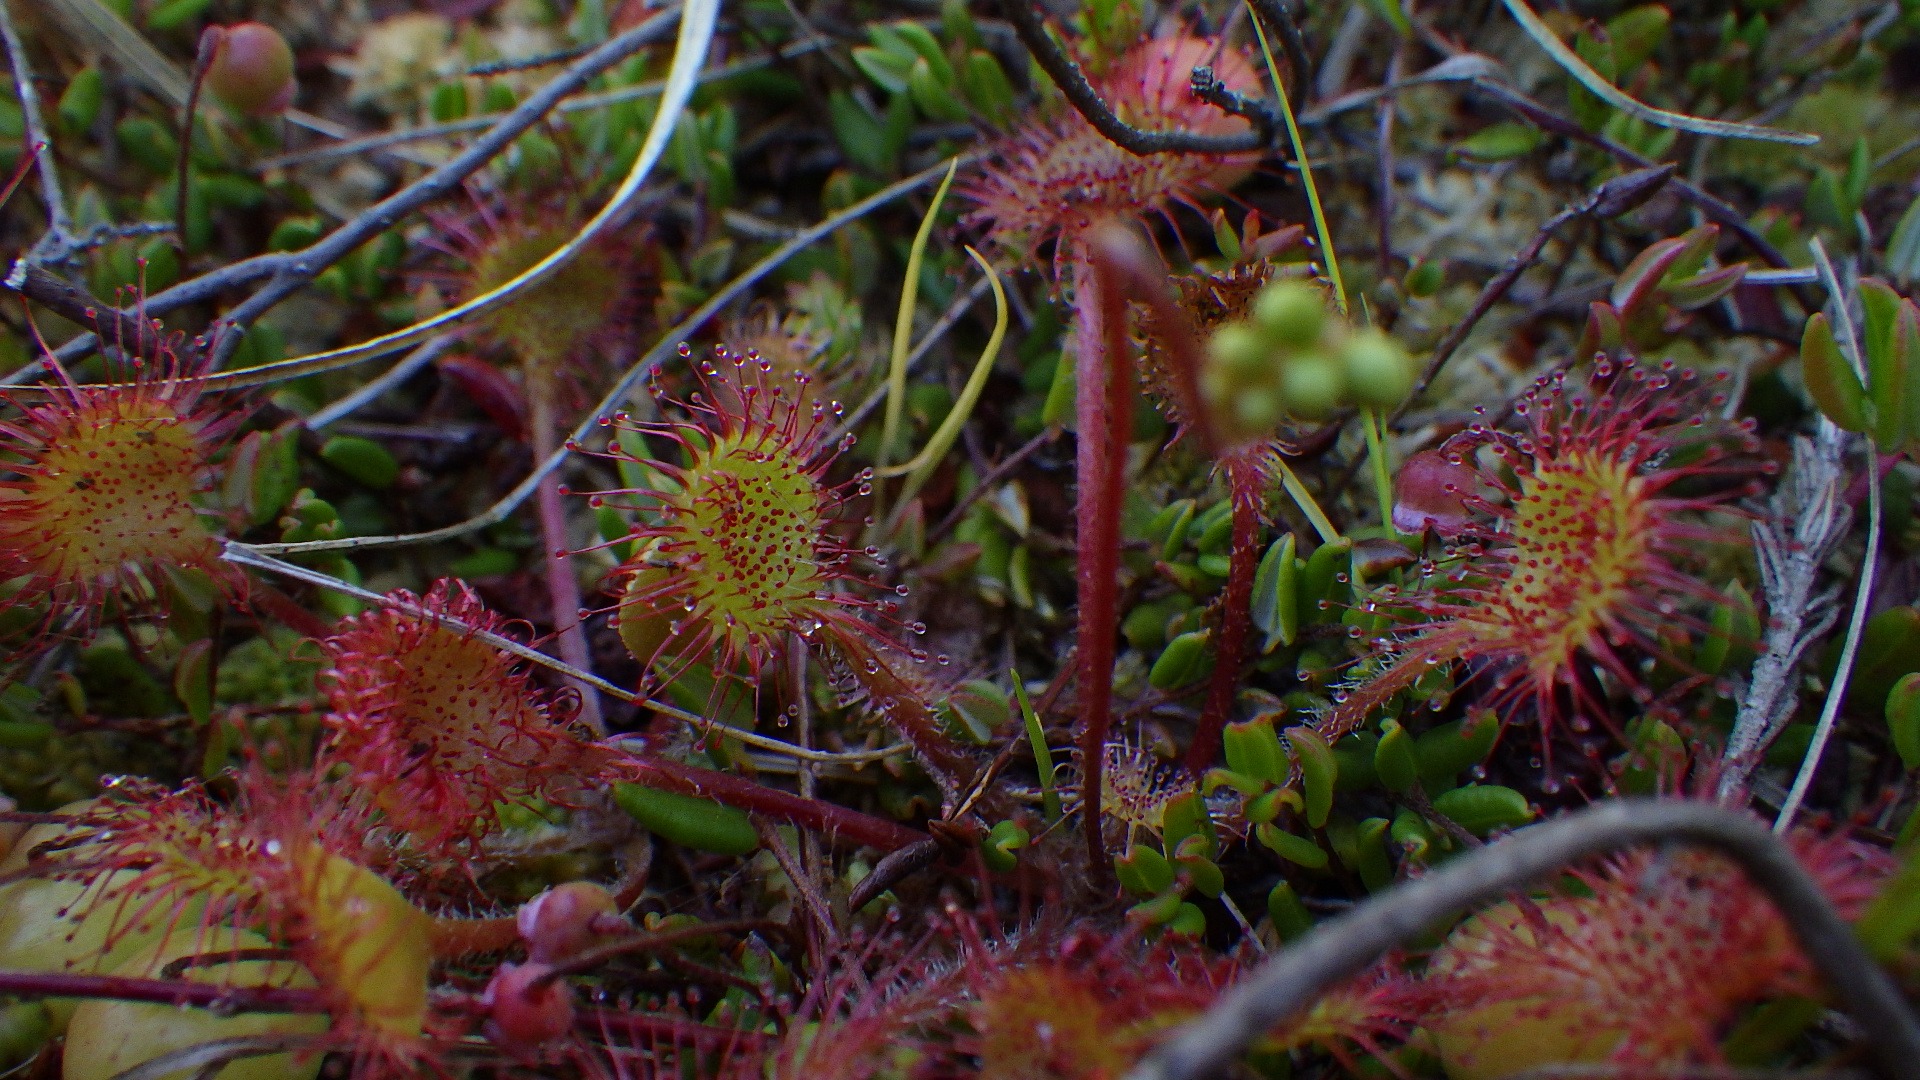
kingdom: Plantae
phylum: Tracheophyta
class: Magnoliopsida
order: Caryophyllales
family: Droseraceae
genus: Drosera
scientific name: Drosera rotundifolia
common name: Rundbladet soldug
